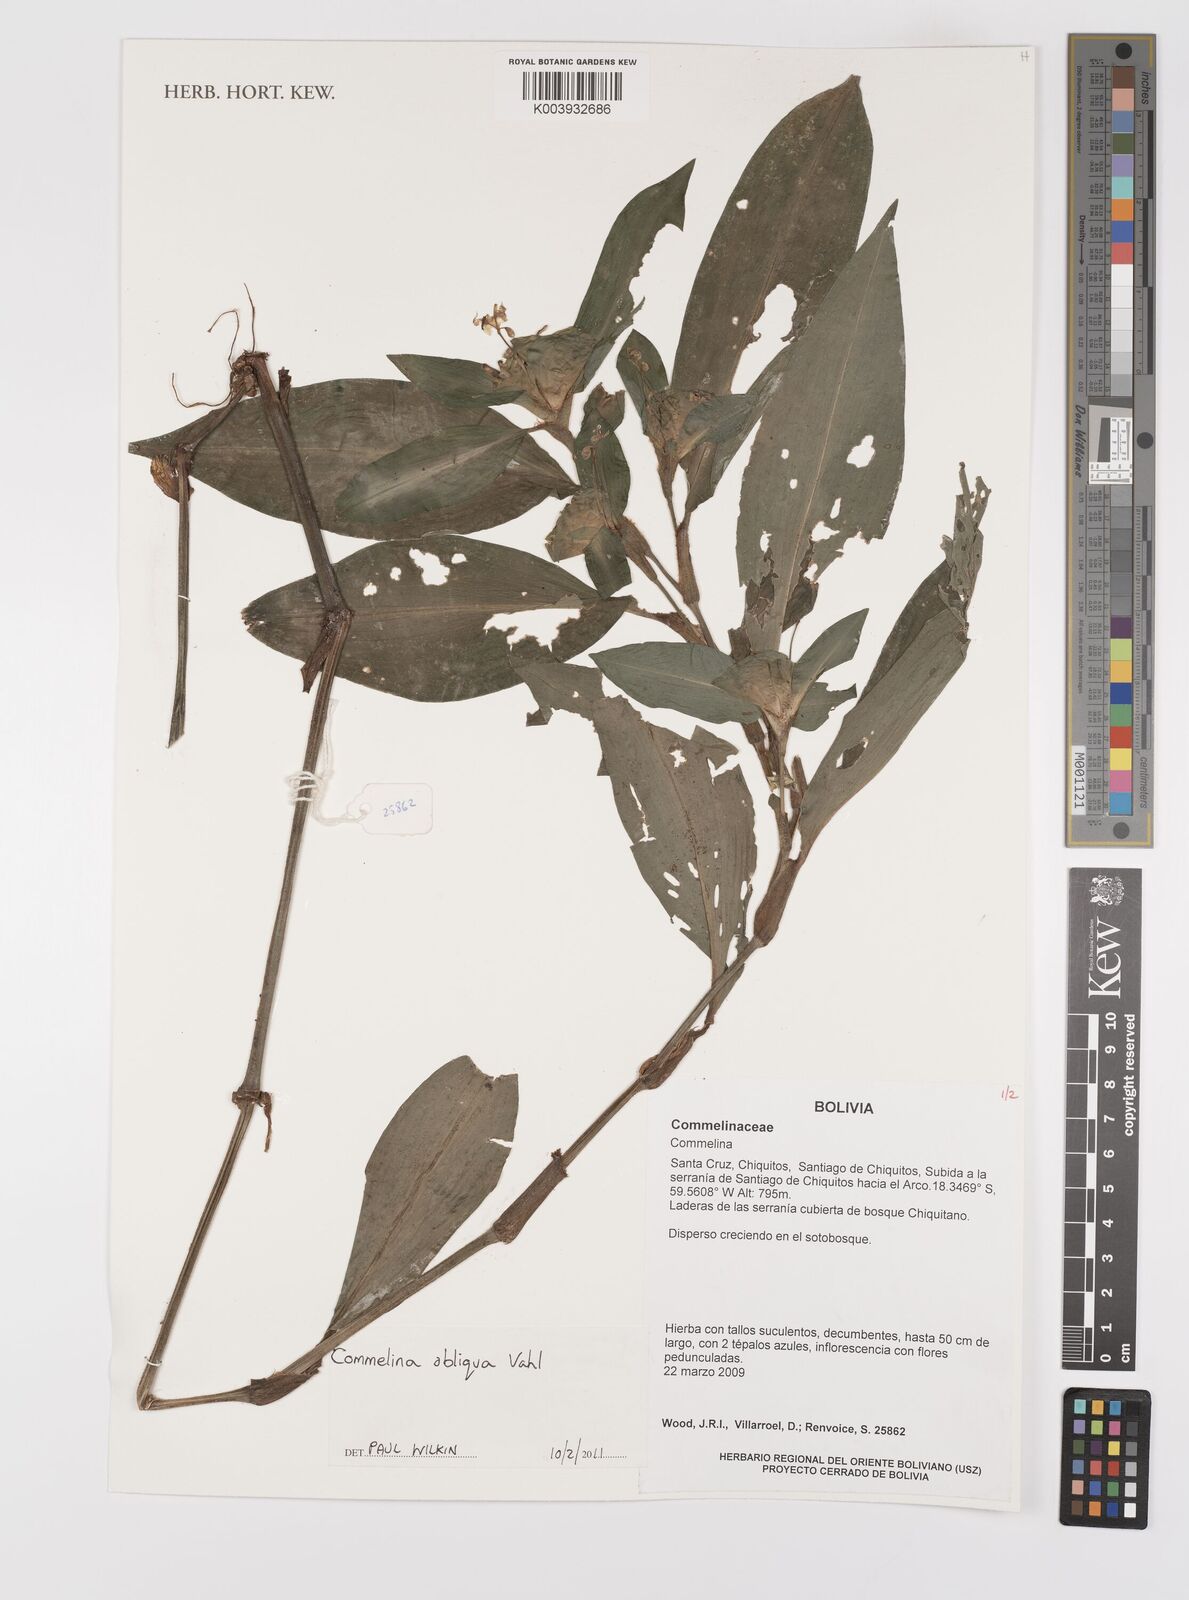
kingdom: Plantae
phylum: Tracheophyta
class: Liliopsida
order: Commelinales
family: Commelinaceae
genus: Commelina
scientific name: Commelina obliqua
